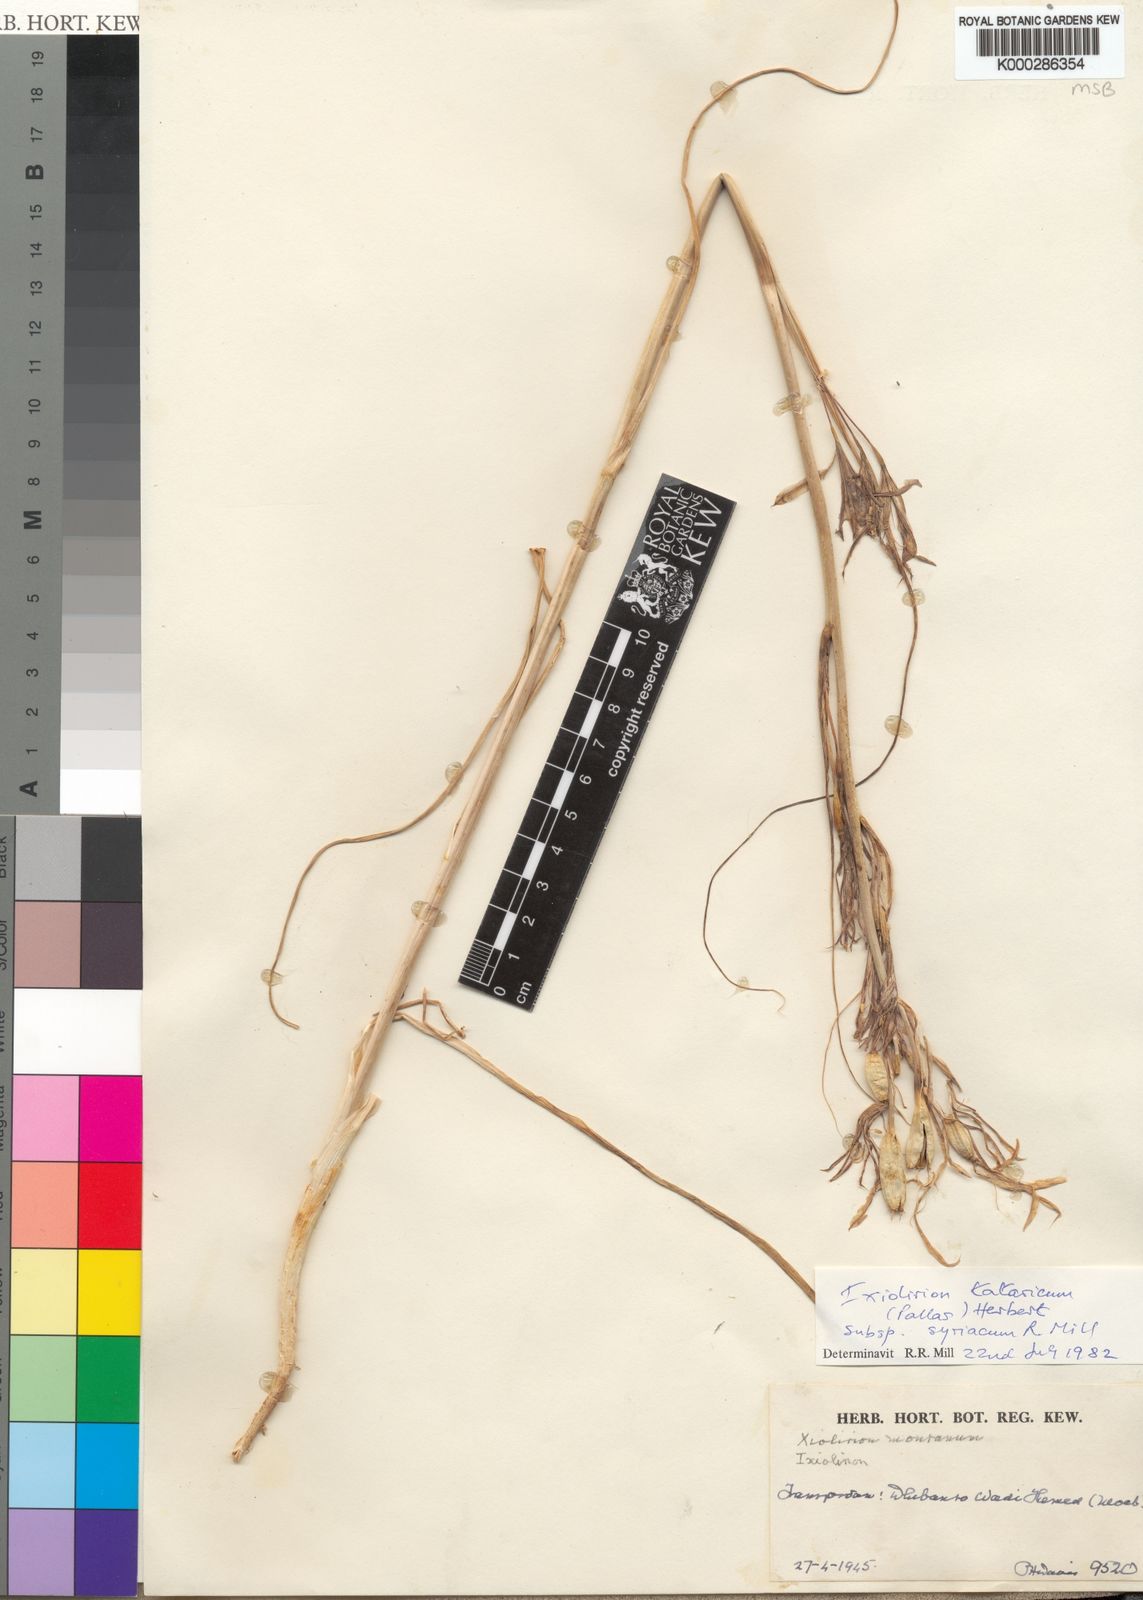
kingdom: Plantae
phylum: Tracheophyta
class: Liliopsida
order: Asparagales
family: Ixioliriaceae
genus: Ixiolirion
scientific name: Ixiolirion tataricum
